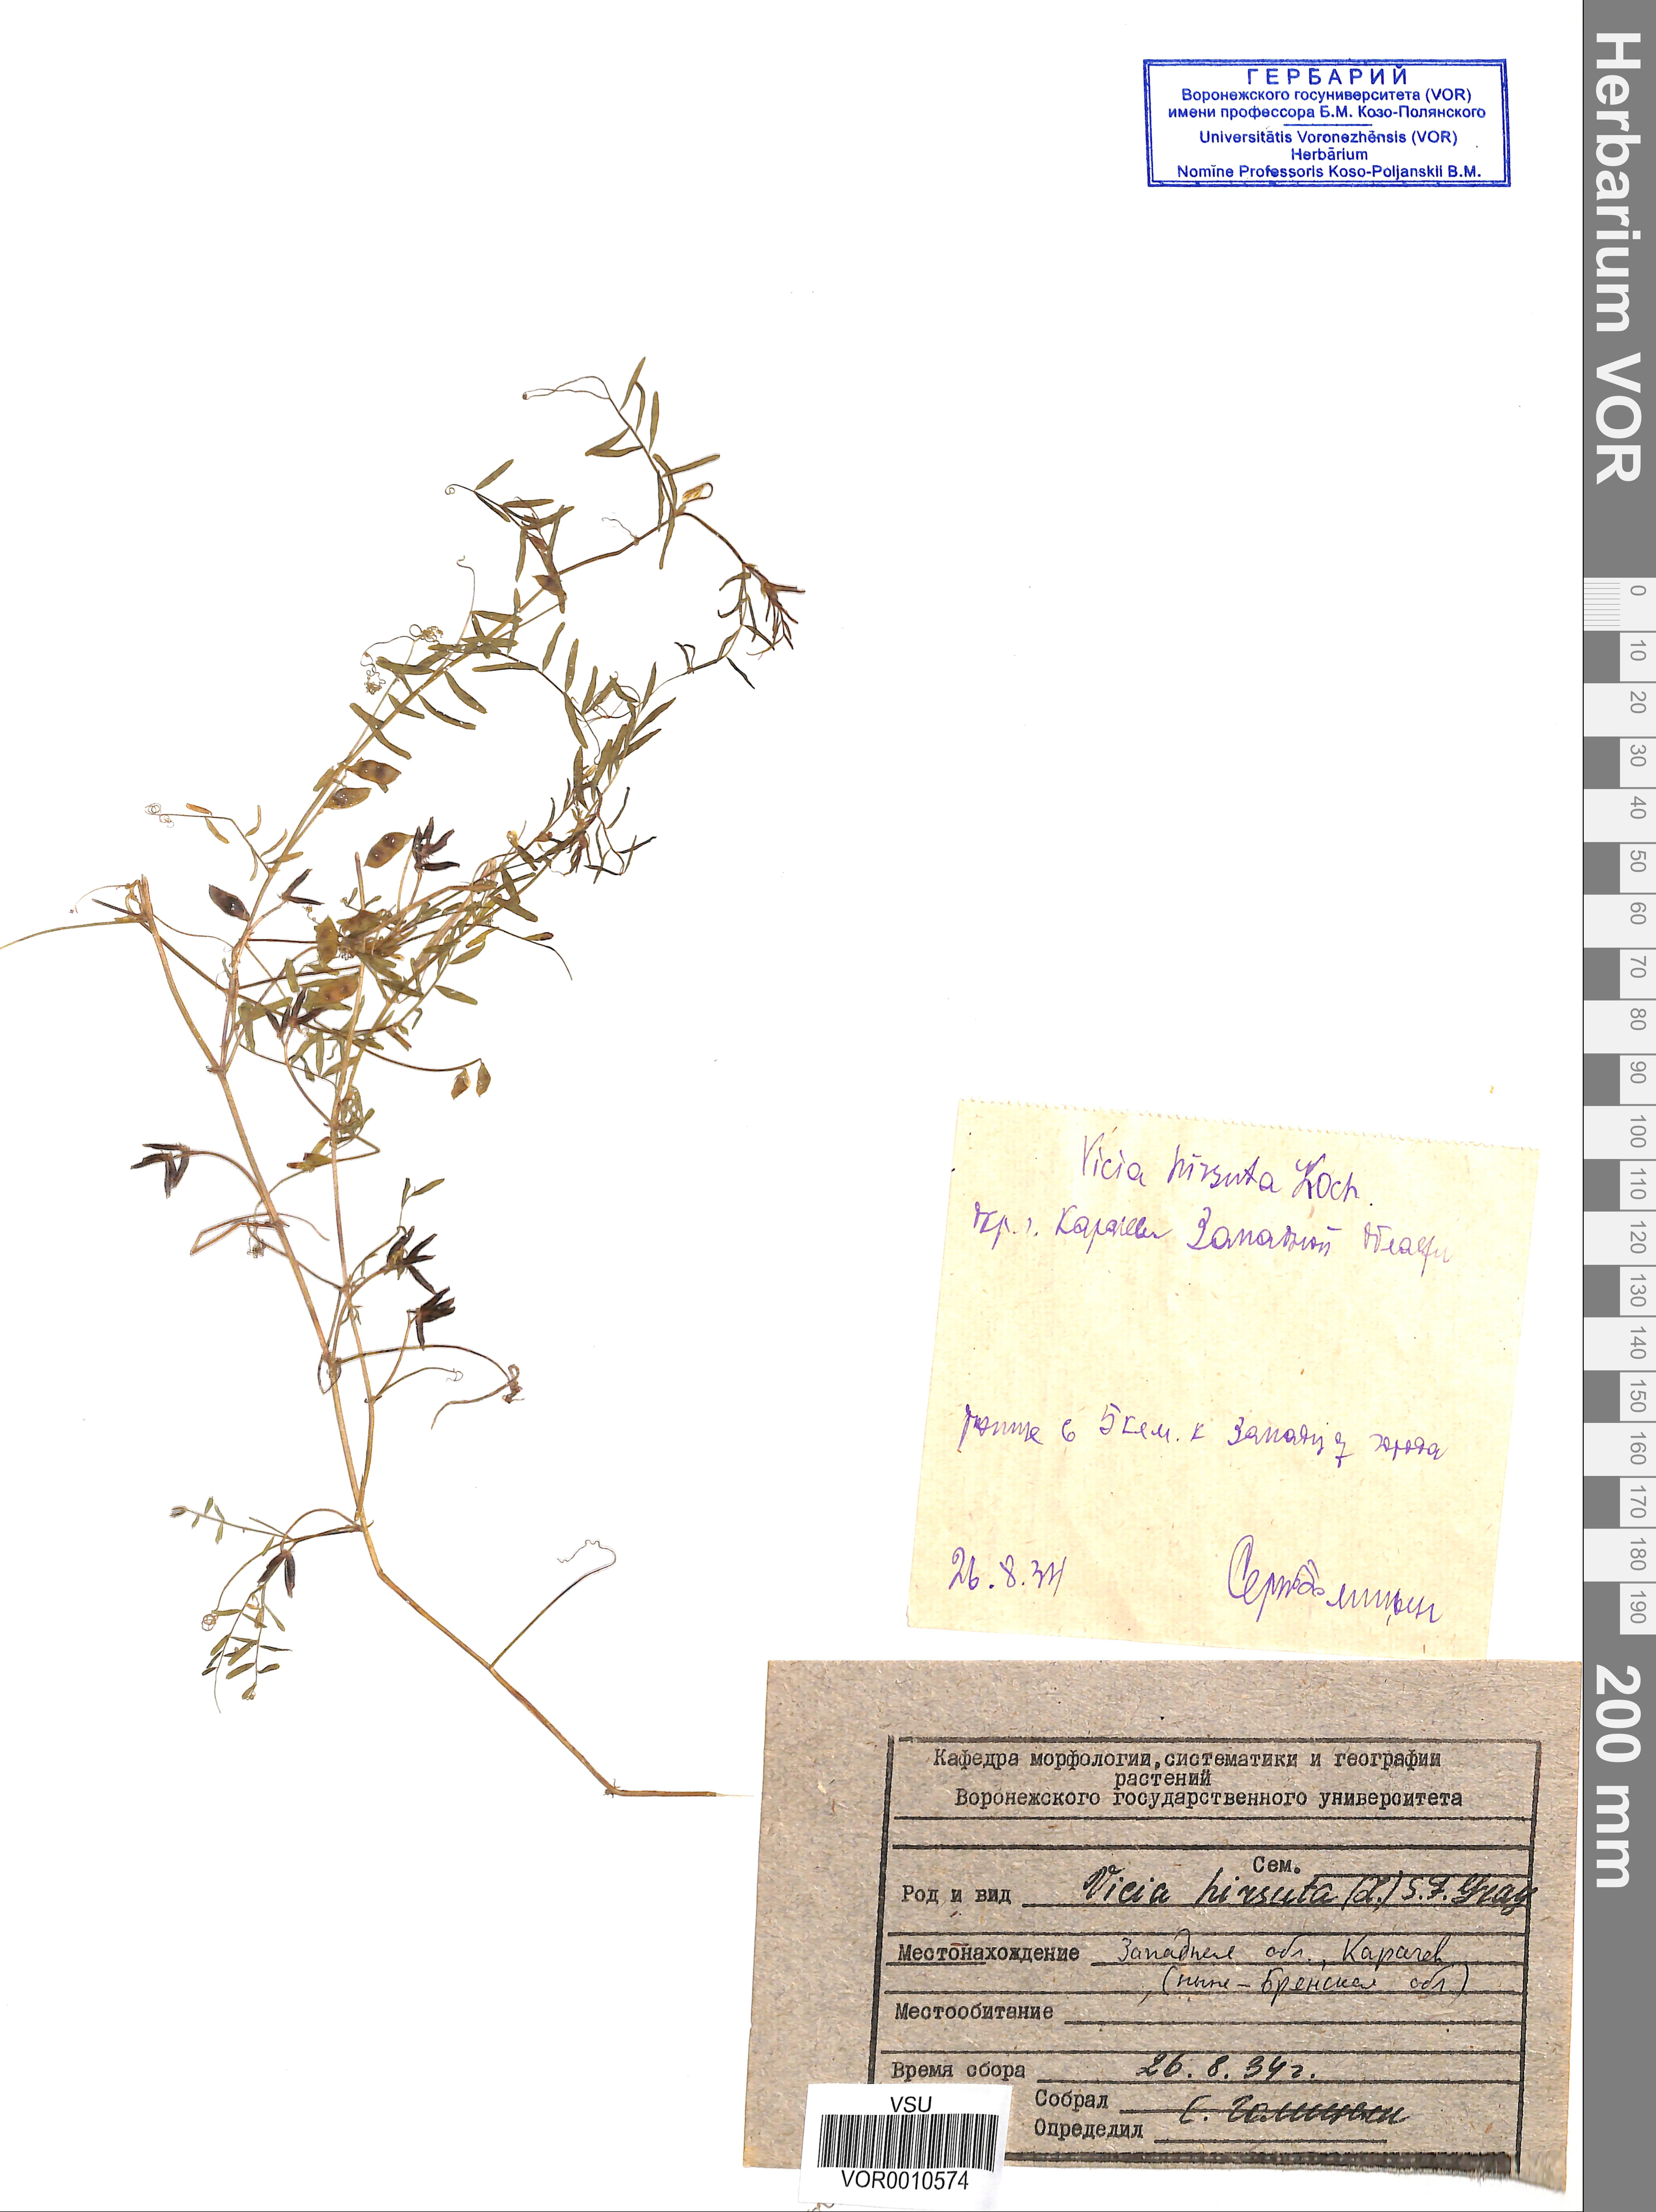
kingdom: Plantae
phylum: Tracheophyta
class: Magnoliopsida
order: Fabales
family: Fabaceae
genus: Vicia
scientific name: Vicia hirsuta
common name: Tiny vetch
